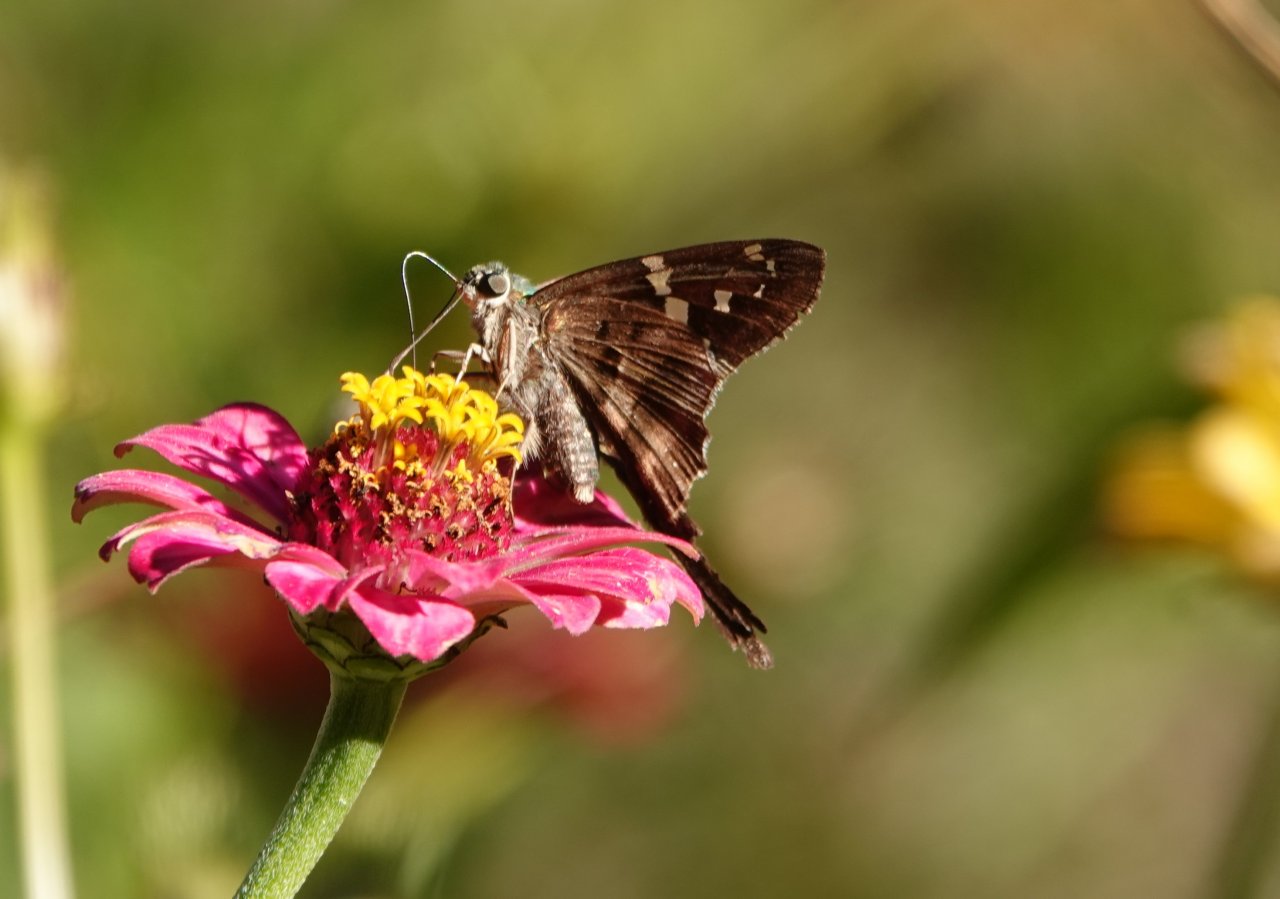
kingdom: Animalia
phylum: Arthropoda
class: Insecta
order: Lepidoptera
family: Hesperiidae
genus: Urbanus
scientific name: Urbanus proteus
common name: Long-tailed Skipper
